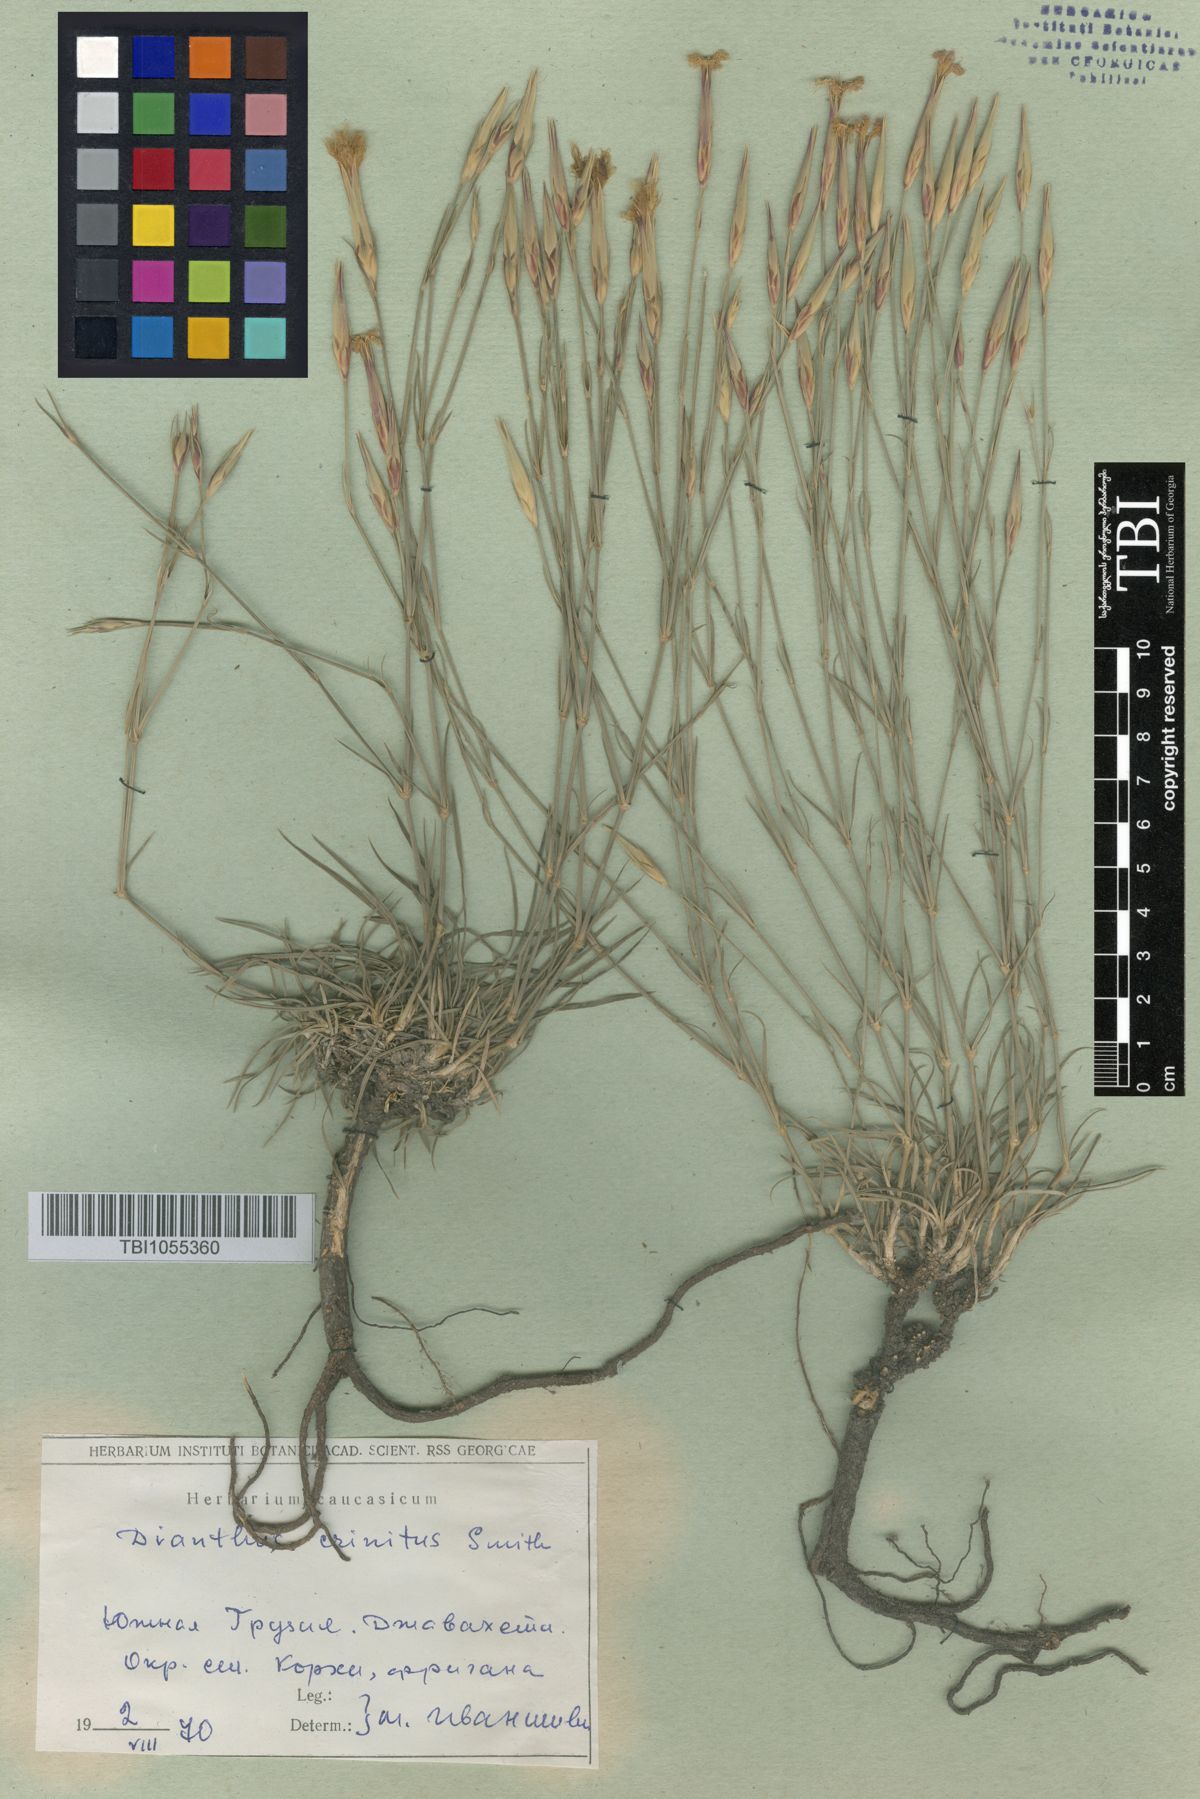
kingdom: Plantae
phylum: Tracheophyta
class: Magnoliopsida
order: Caryophyllales
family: Caryophyllaceae
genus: Dianthus
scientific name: Dianthus crinitus
